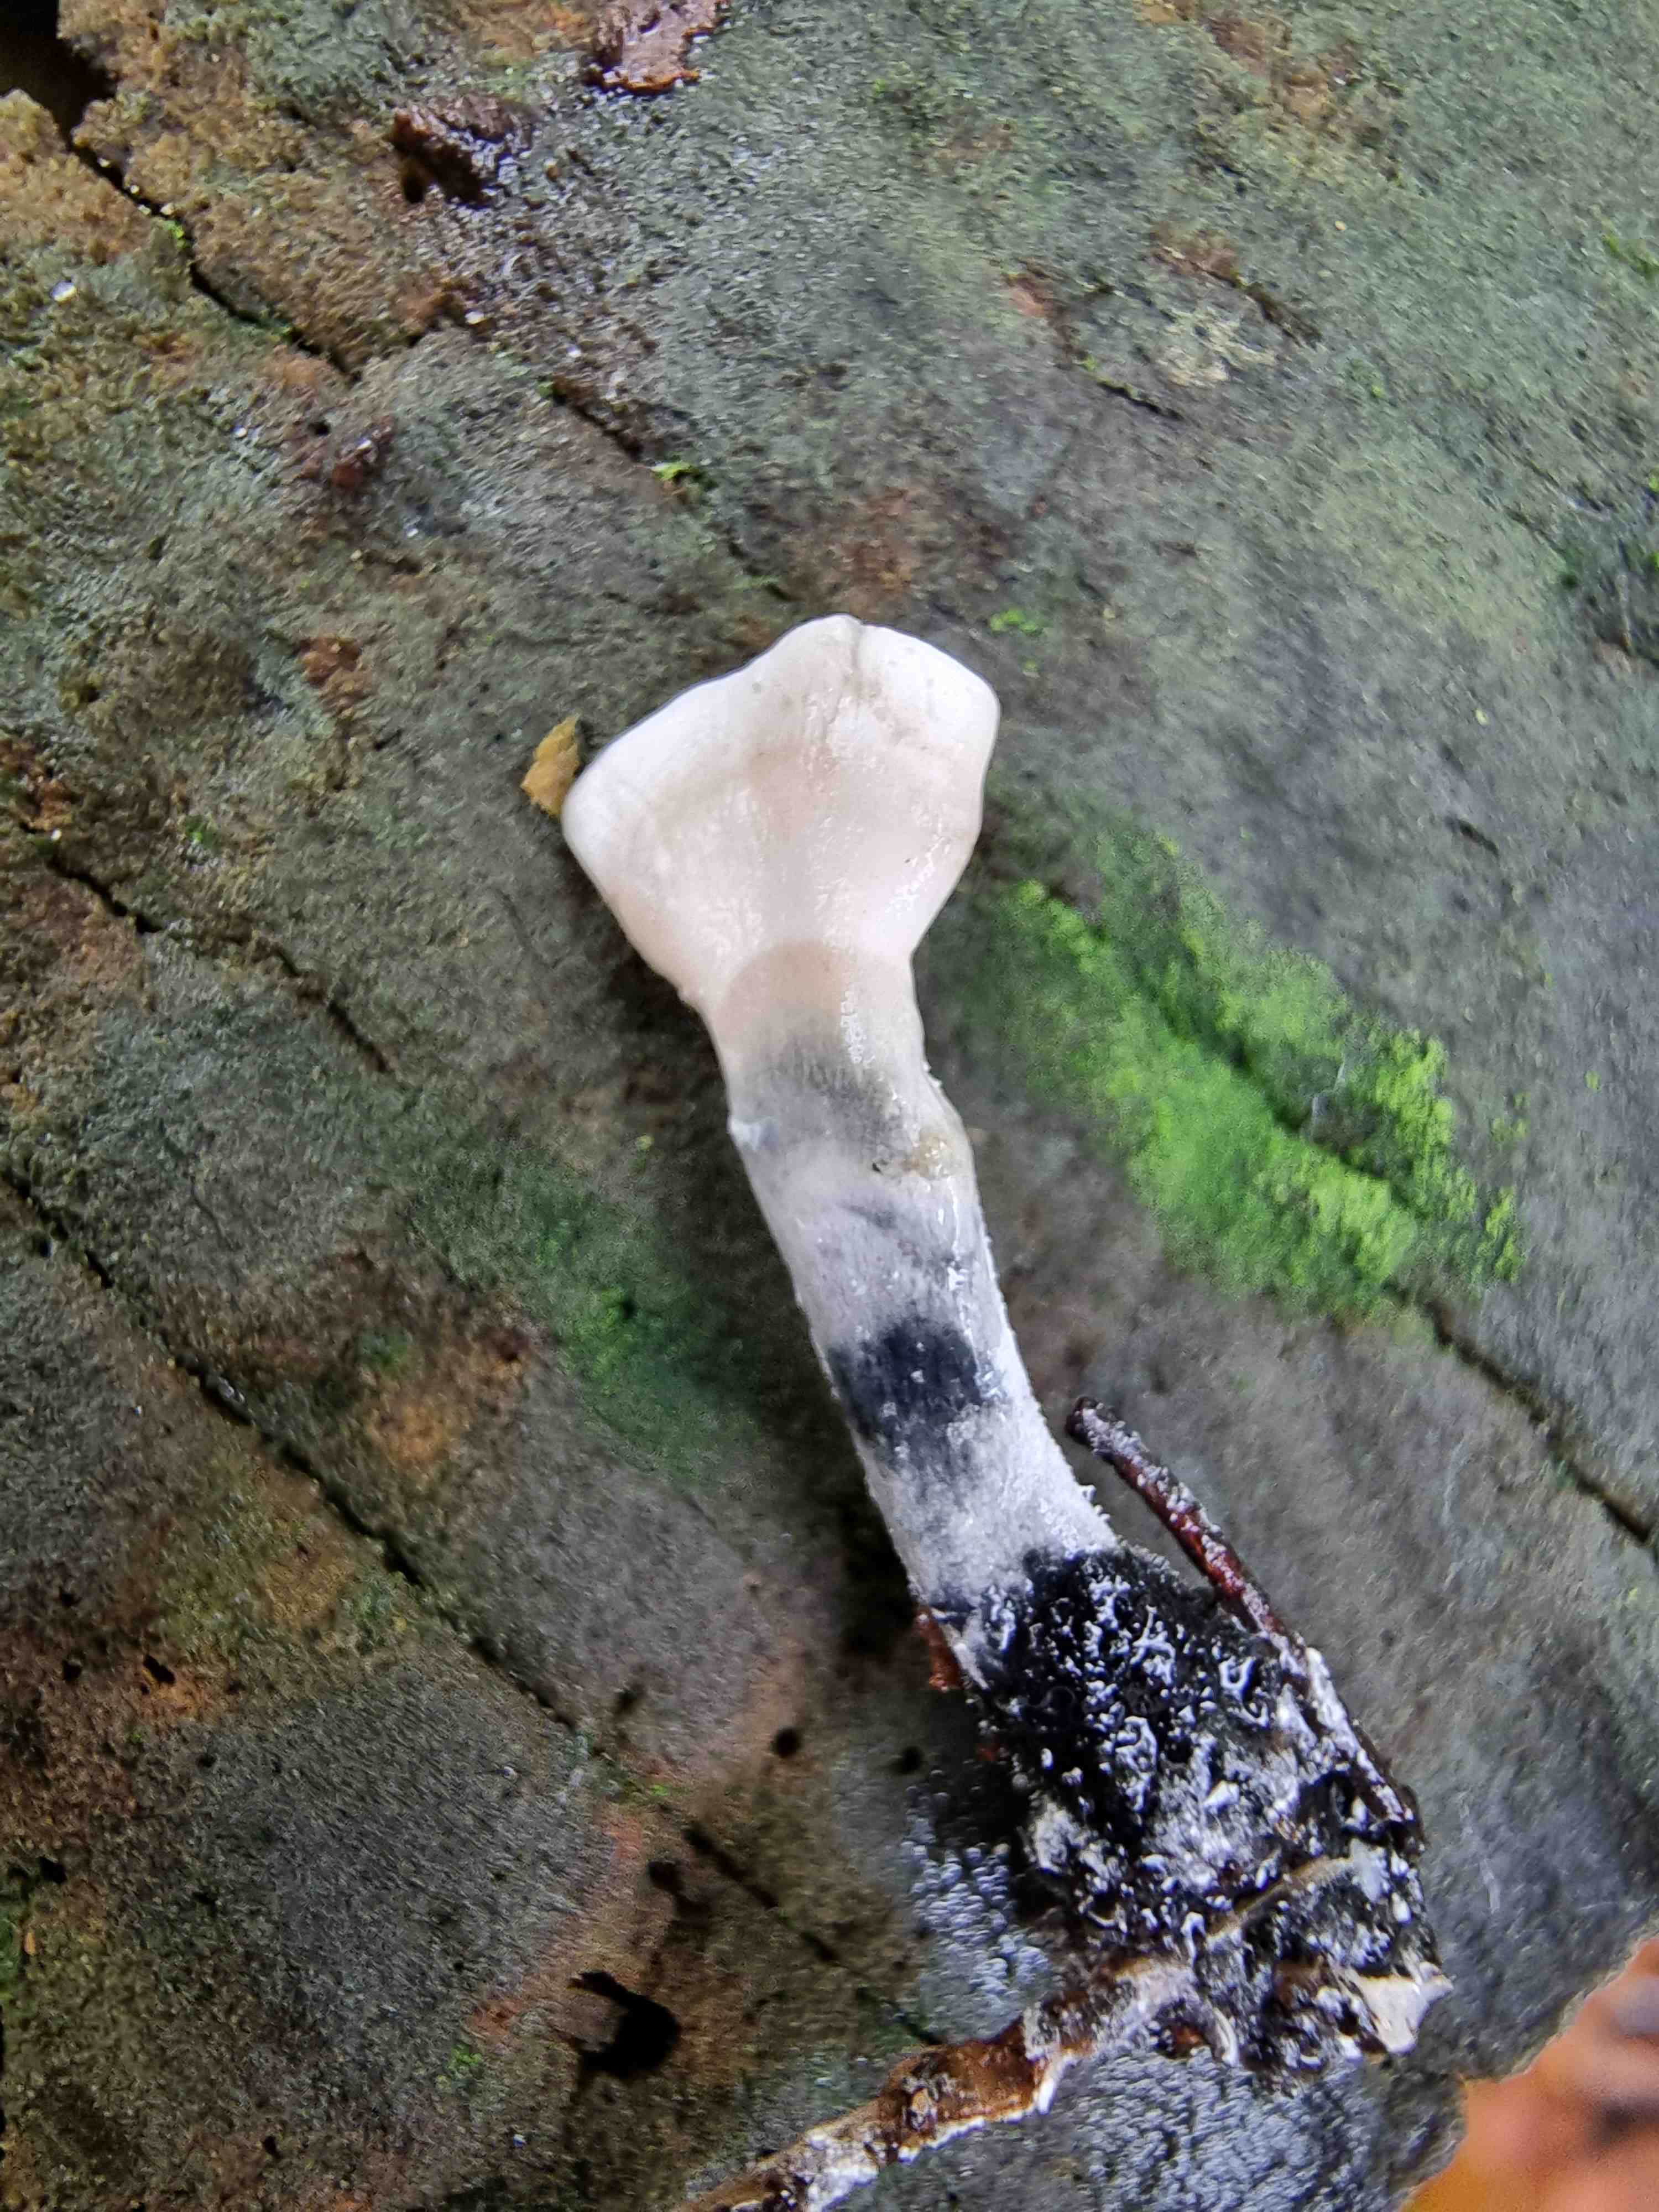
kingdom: Fungi
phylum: Ascomycota
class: Sordariomycetes
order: Xylariales
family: Xylariaceae
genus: Xylaria
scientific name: Xylaria hypoxylon
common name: grenet stødsvamp
